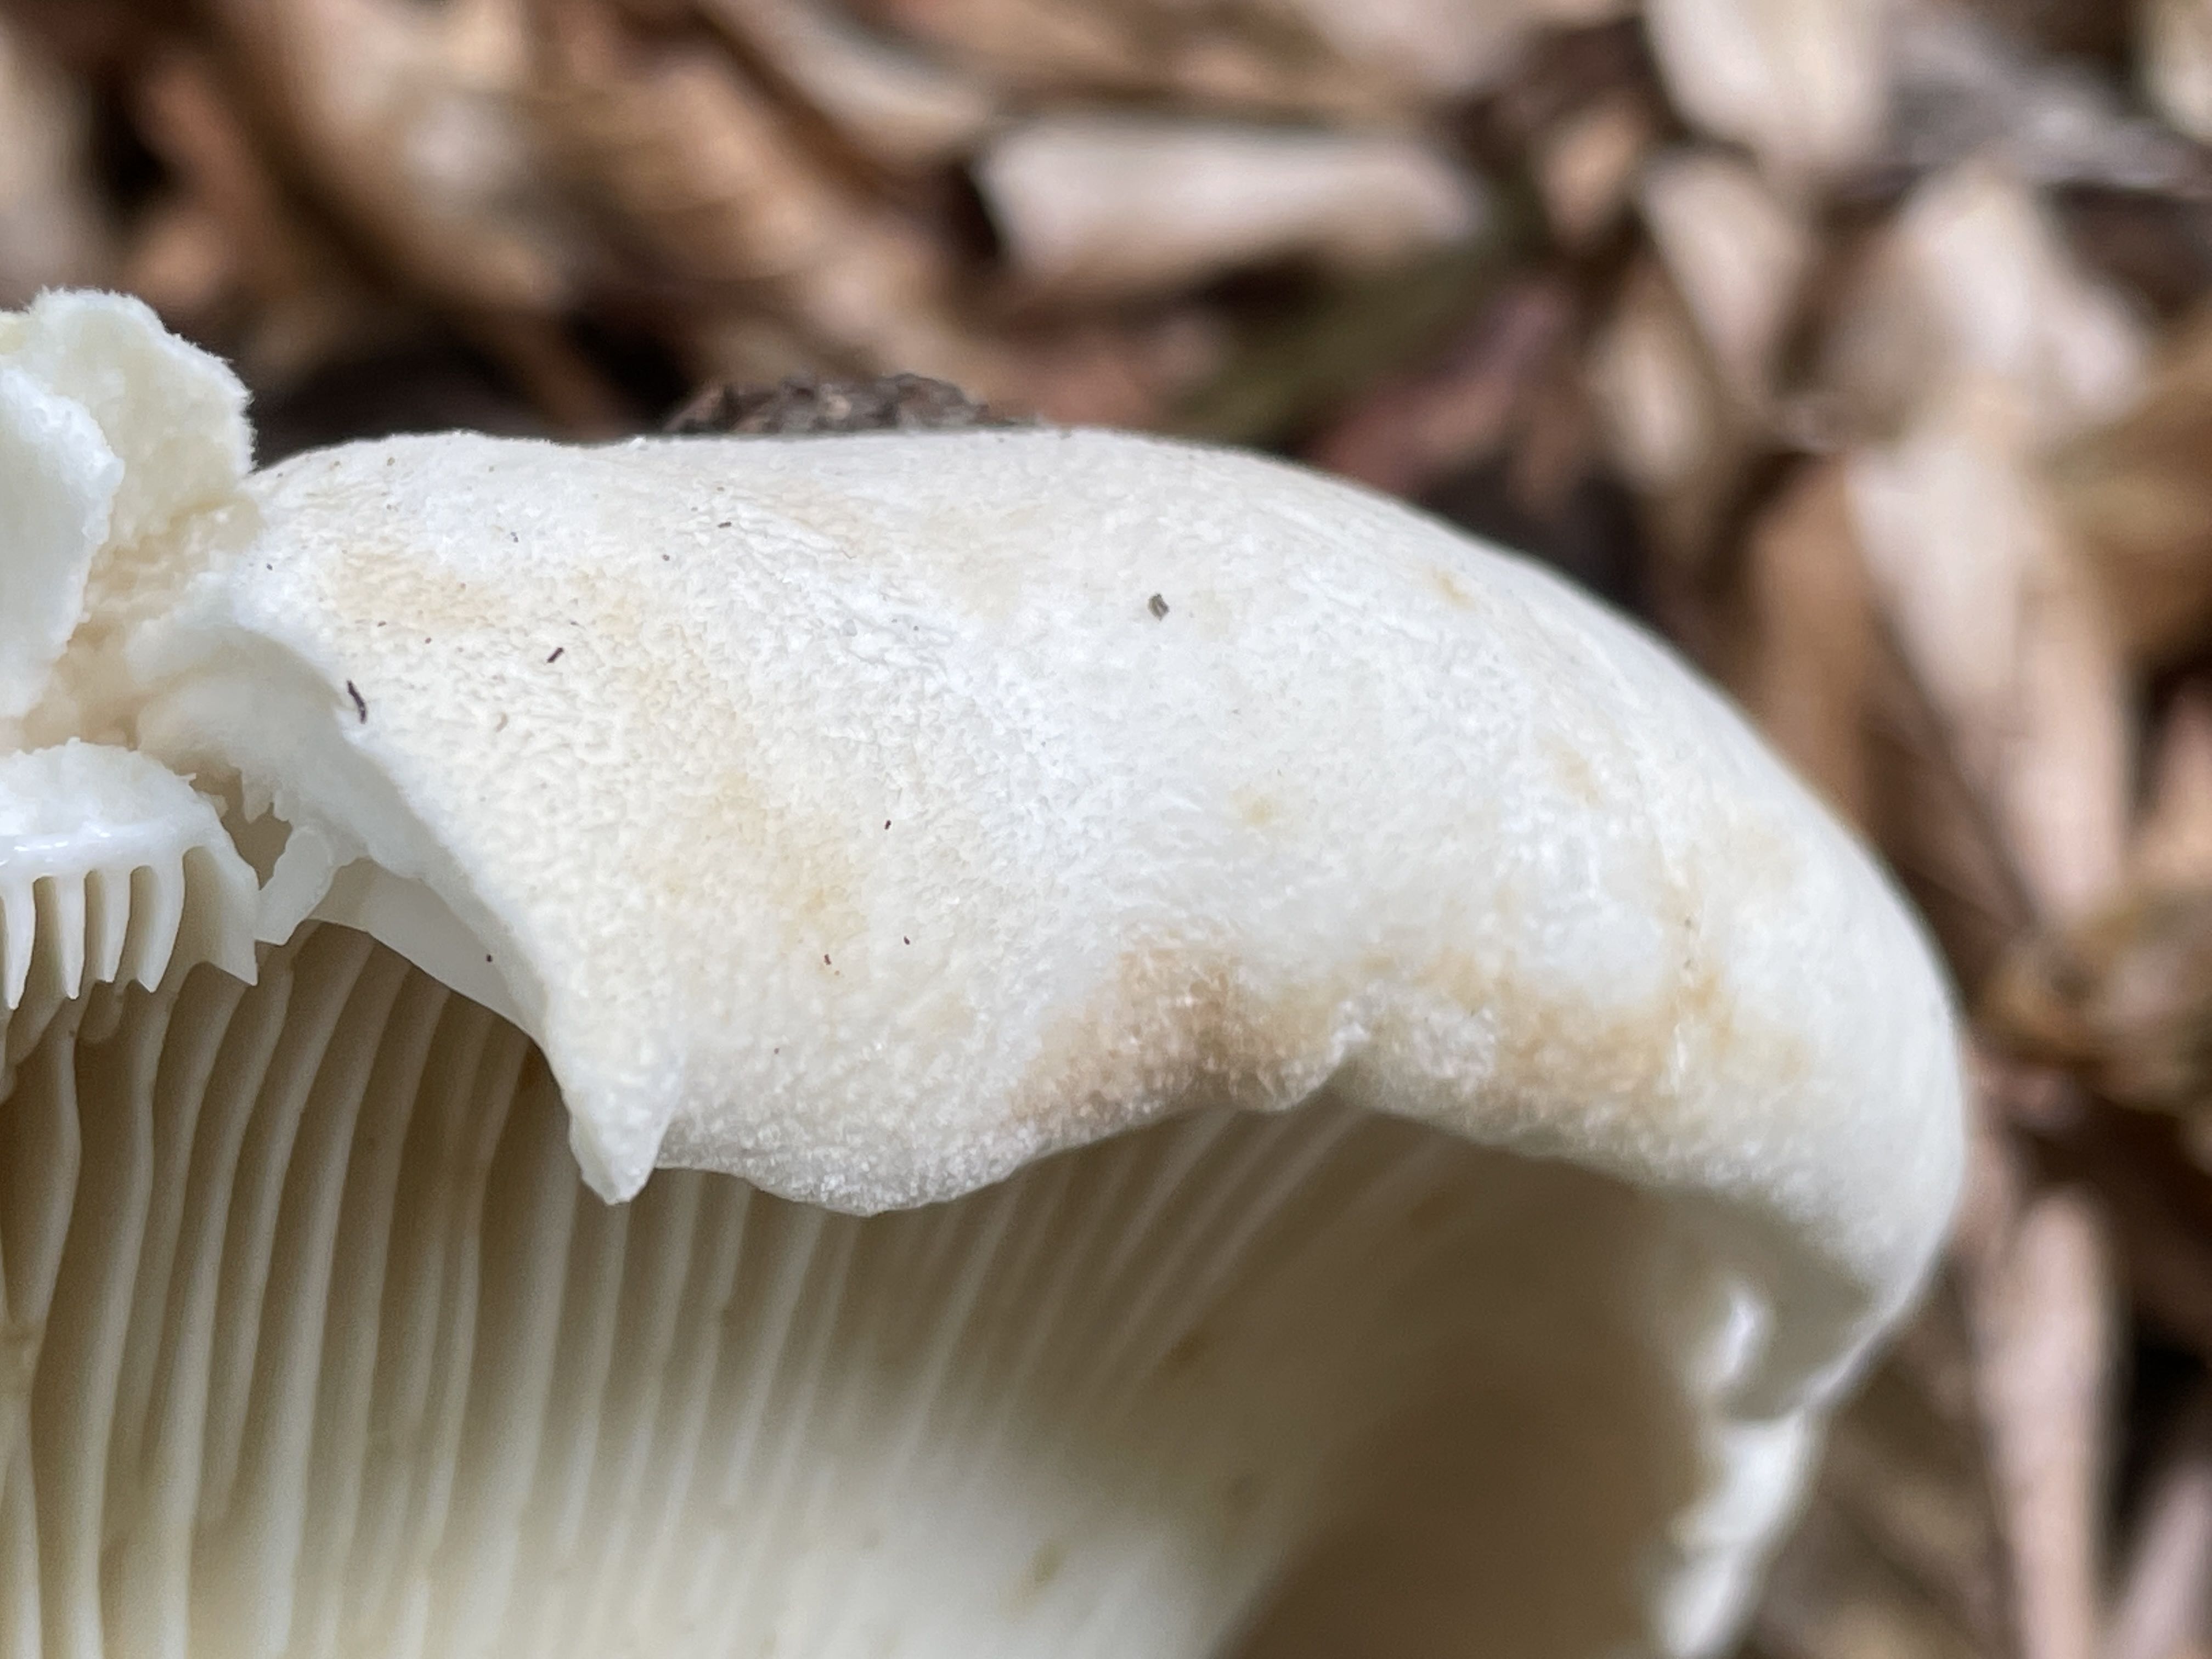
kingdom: Fungi
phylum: Basidiomycota
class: Agaricomycetes
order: Russulales
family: Russulaceae
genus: Lactifluus
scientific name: Lactifluus vellereus
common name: hvidfiltet mælkehat
